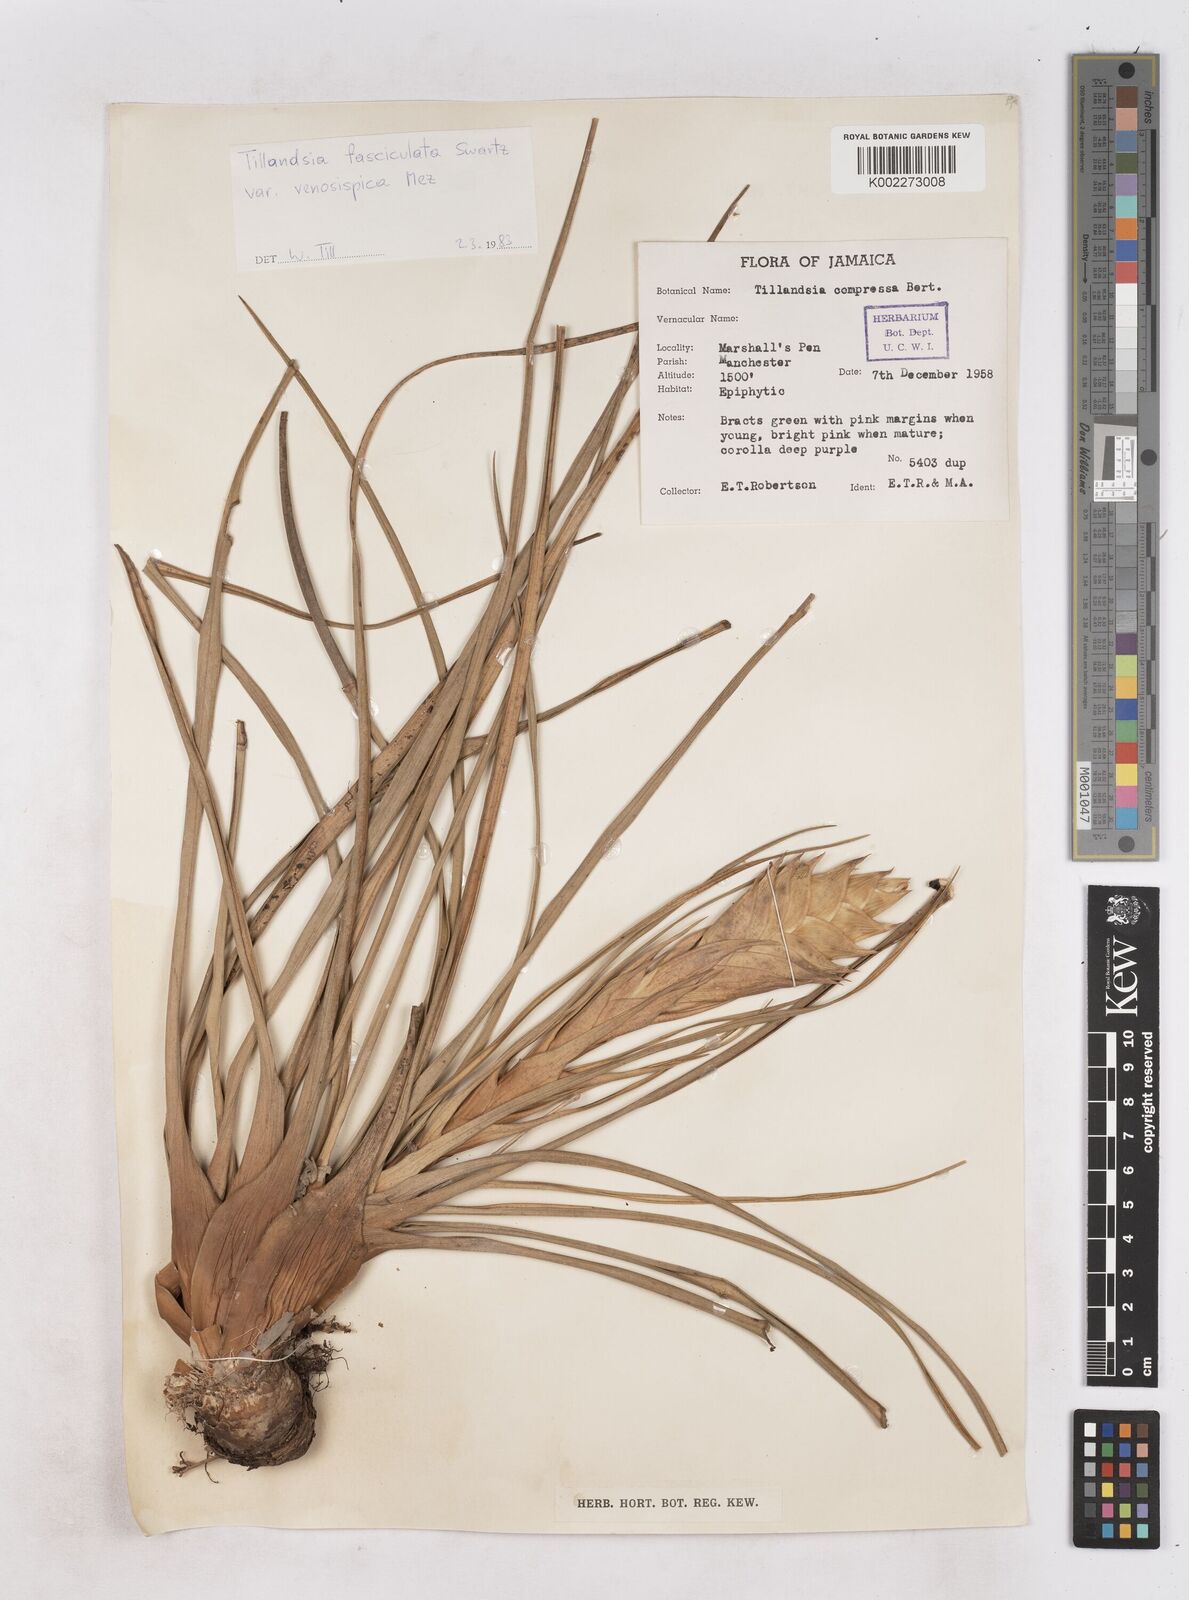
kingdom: Plantae
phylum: Tracheophyta
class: Liliopsida
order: Poales
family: Bromeliaceae
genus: Tillandsia
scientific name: Tillandsia compressa
